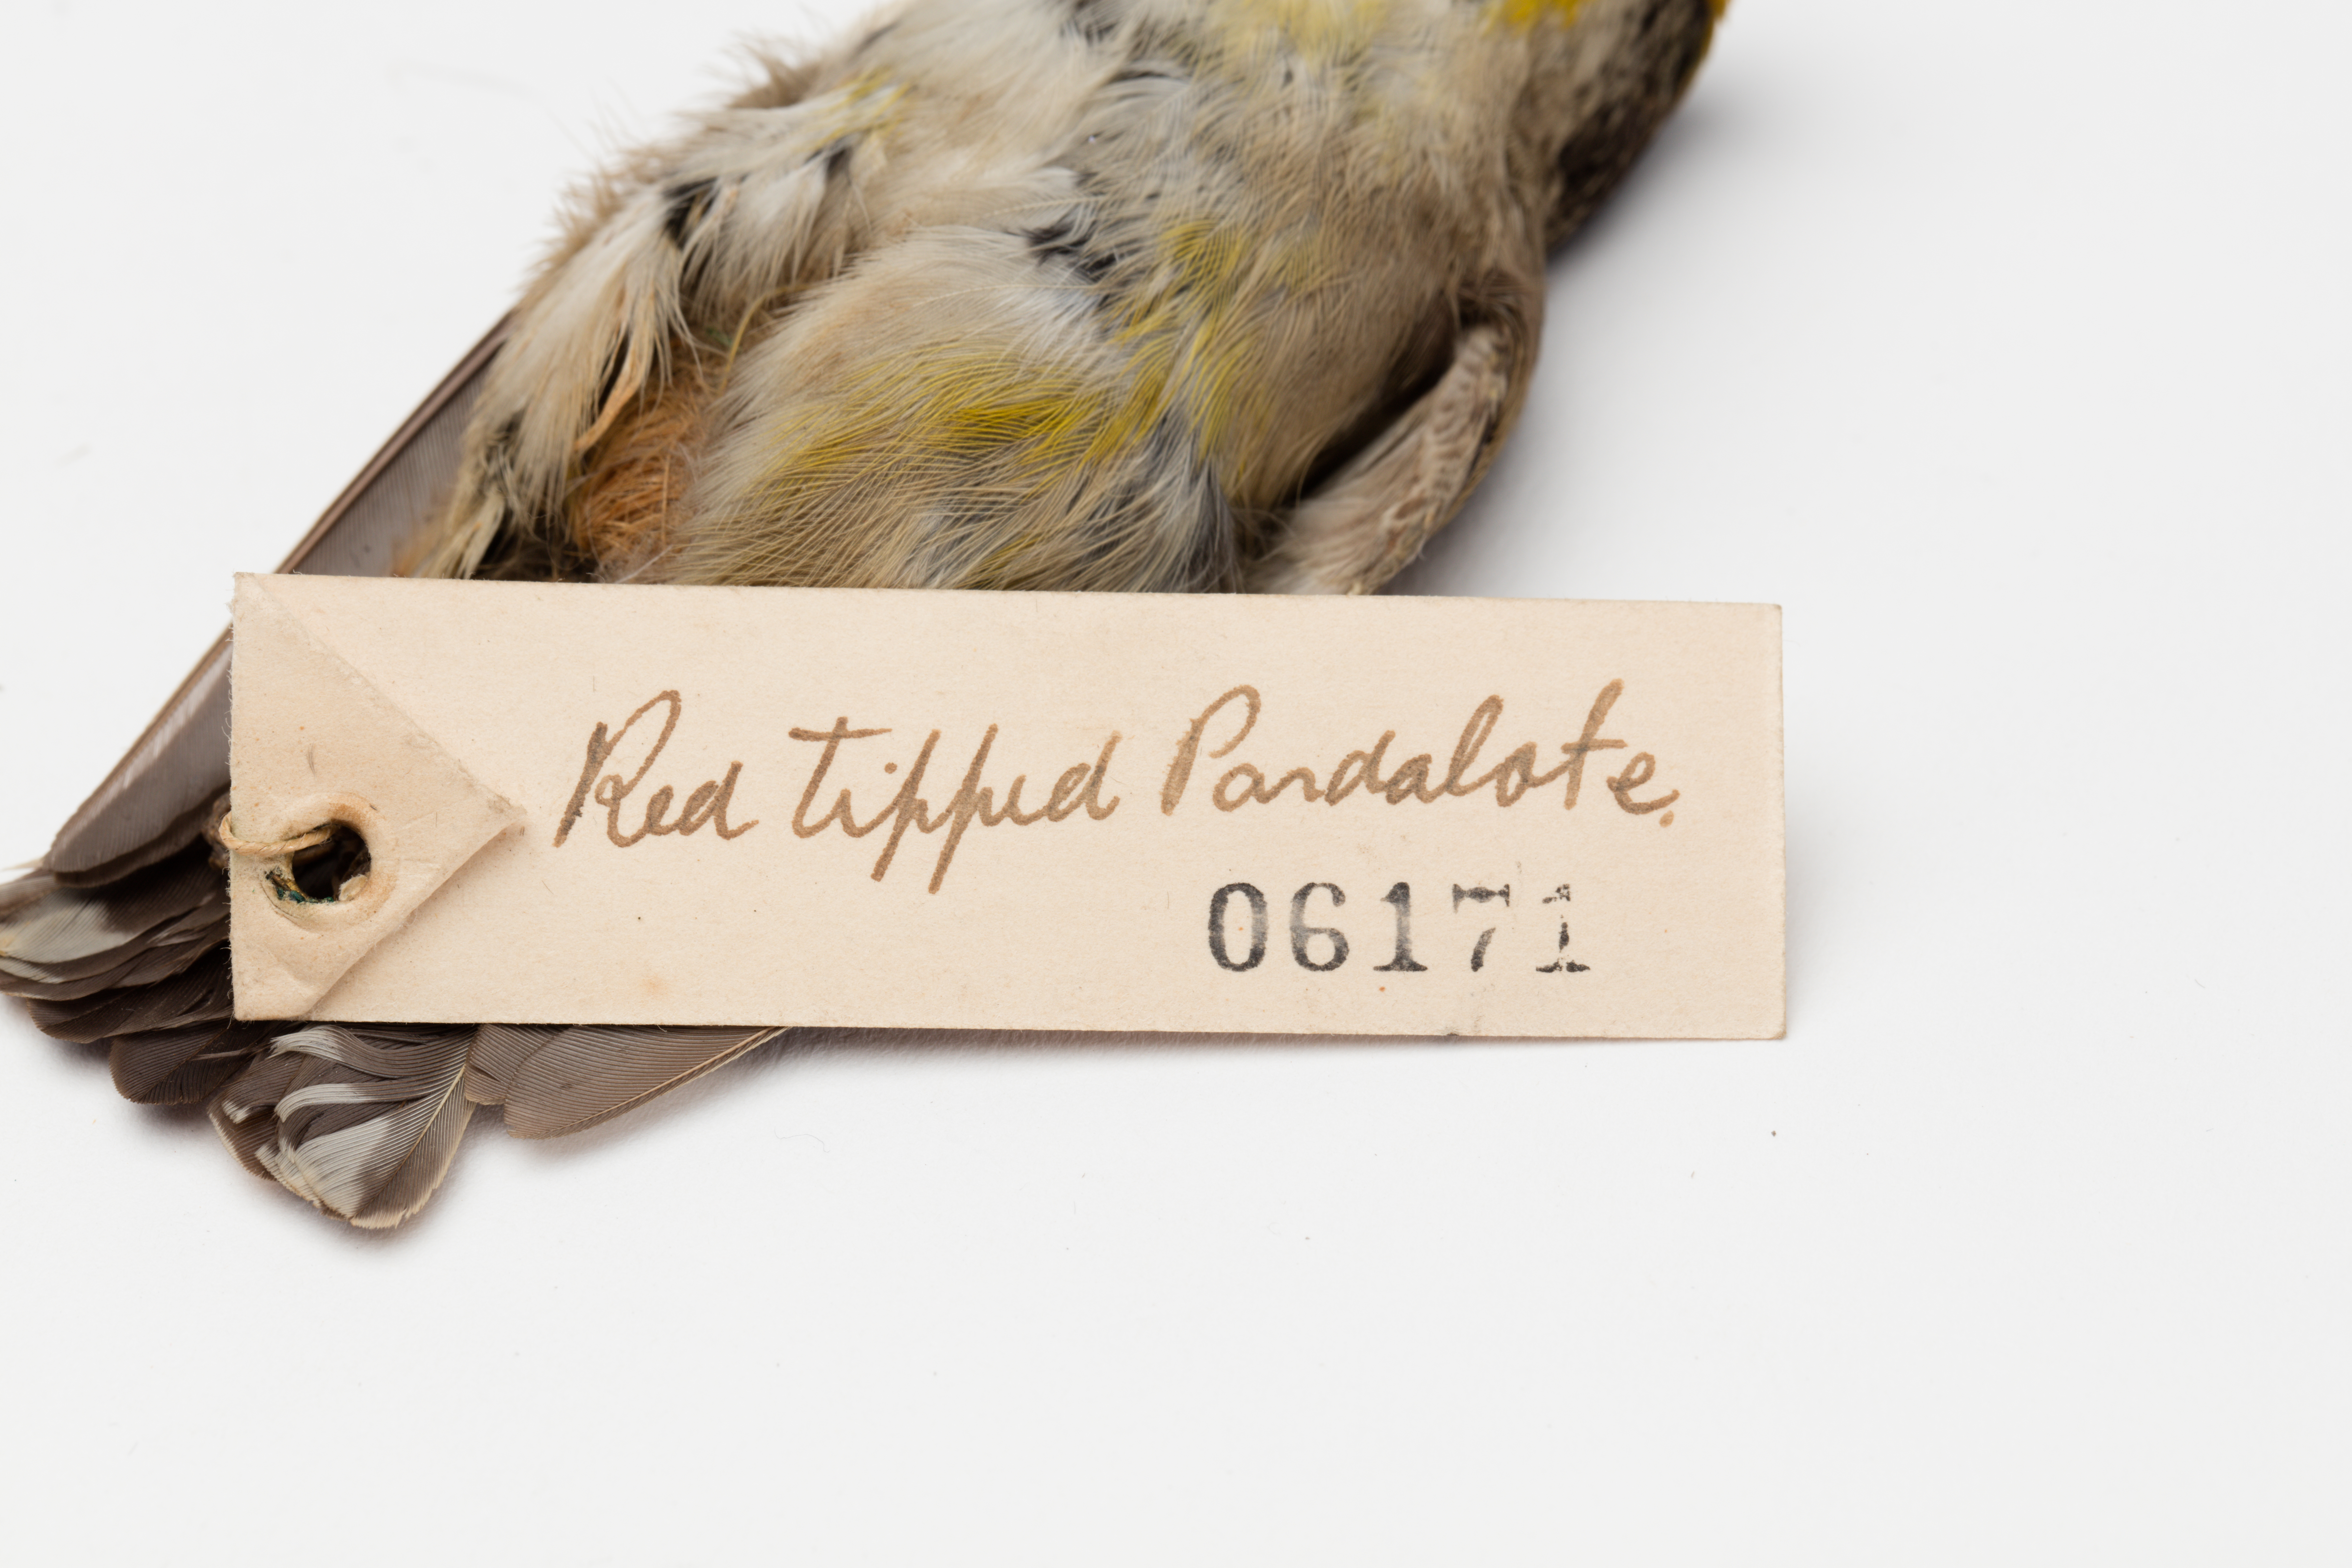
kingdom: Animalia
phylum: Chordata
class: Aves
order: Passeriformes
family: Pardalotidae
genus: Pardalotus
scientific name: Pardalotus striatus
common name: Striated pardalote
